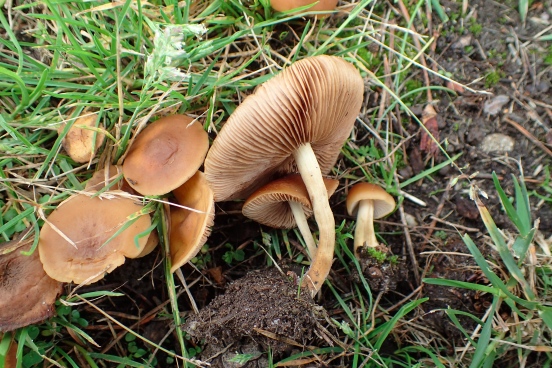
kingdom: Fungi
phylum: Basidiomycota
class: Agaricomycetes
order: Agaricales
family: Strophariaceae
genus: Agrocybe
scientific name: Agrocybe arvalis
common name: rodslående agerhat
